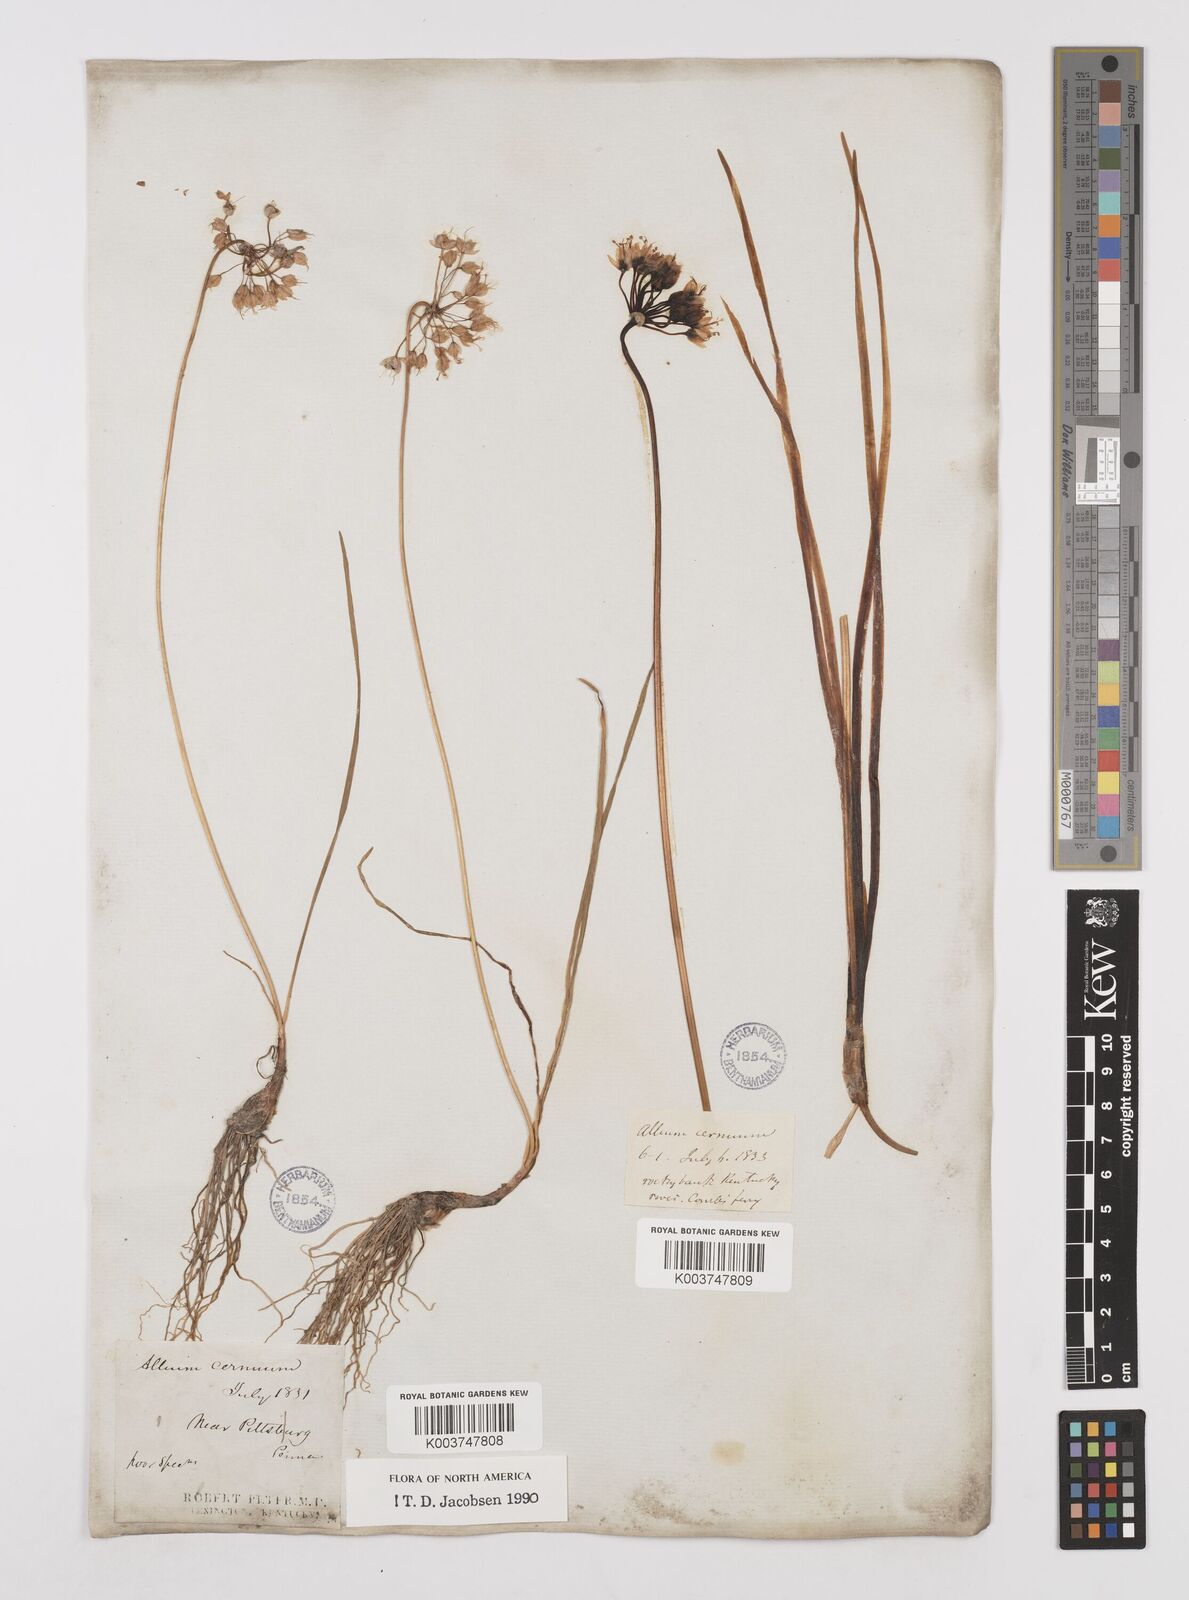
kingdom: Plantae
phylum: Tracheophyta
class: Liliopsida
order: Asparagales
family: Amaryllidaceae
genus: Allium
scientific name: Allium cernuum
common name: Nodding onion
